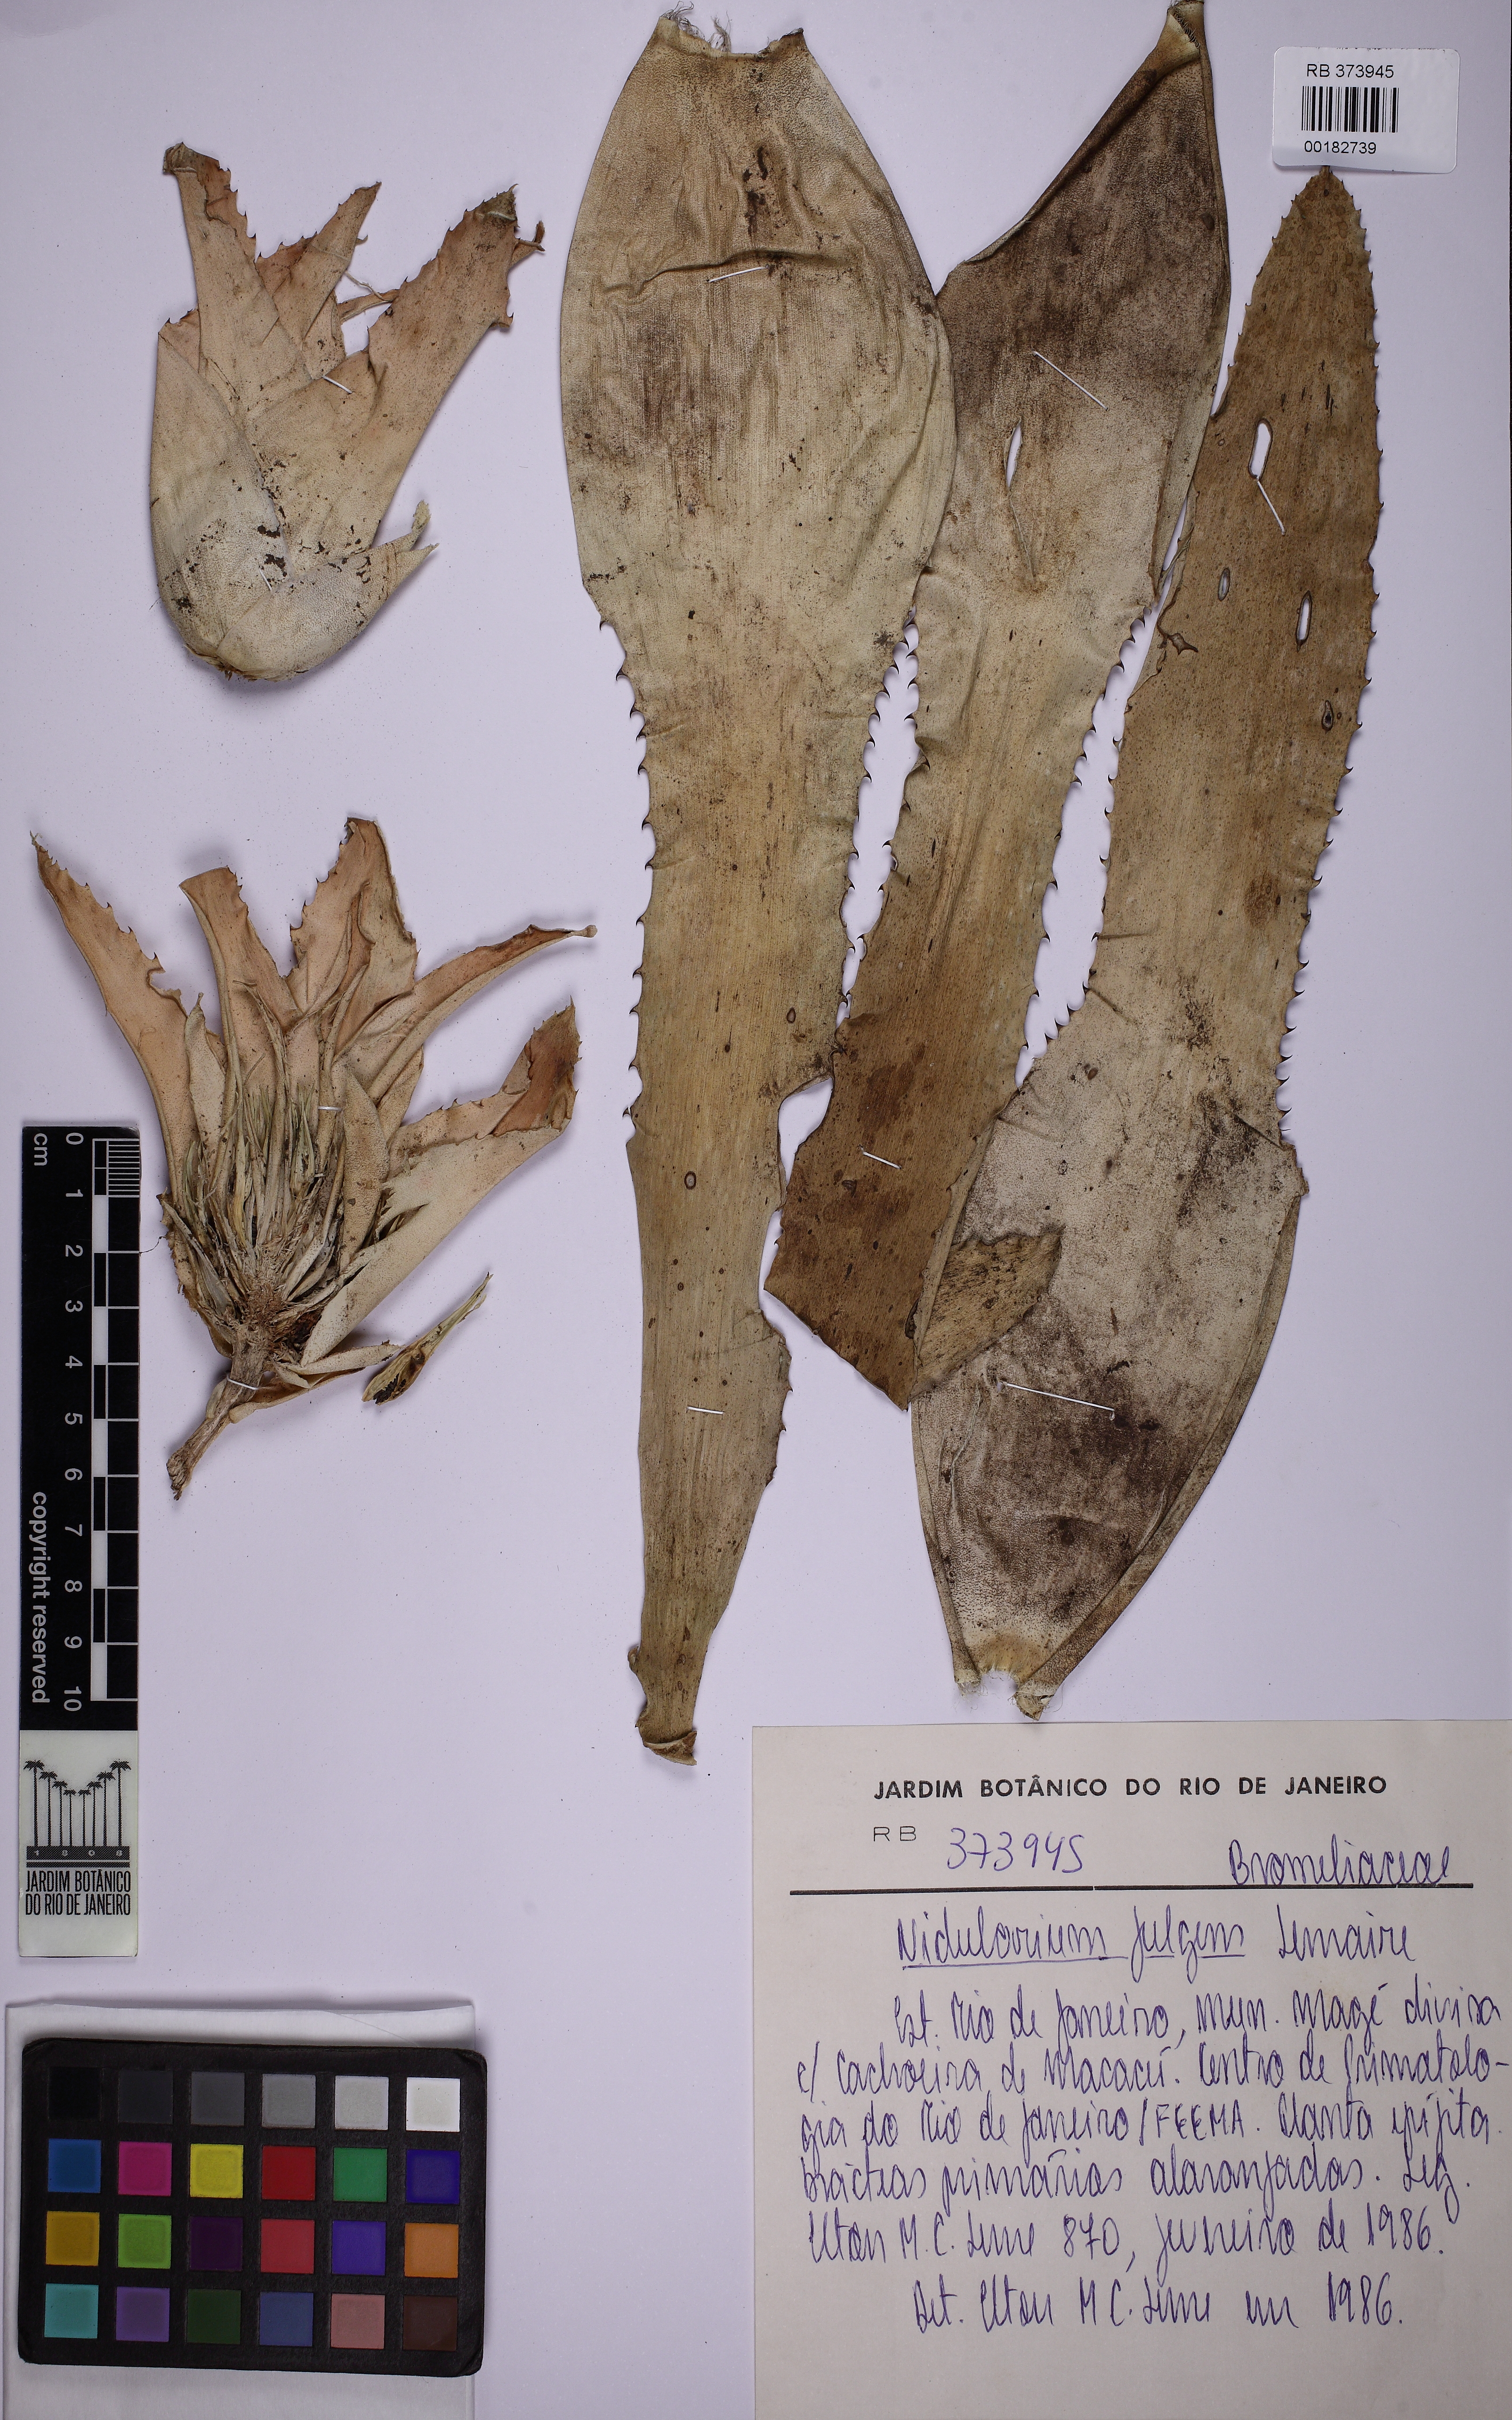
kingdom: Plantae
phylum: Tracheophyta
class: Liliopsida
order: Poales
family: Bromeliaceae
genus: Nidularium
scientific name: Nidularium fulgens
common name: Blushing bromeliad
